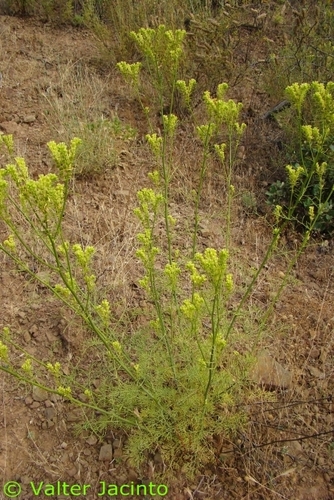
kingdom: Plantae
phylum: Tracheophyta
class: Magnoliopsida
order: Sapindales
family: Rutaceae
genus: Ruta
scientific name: Ruta montana
